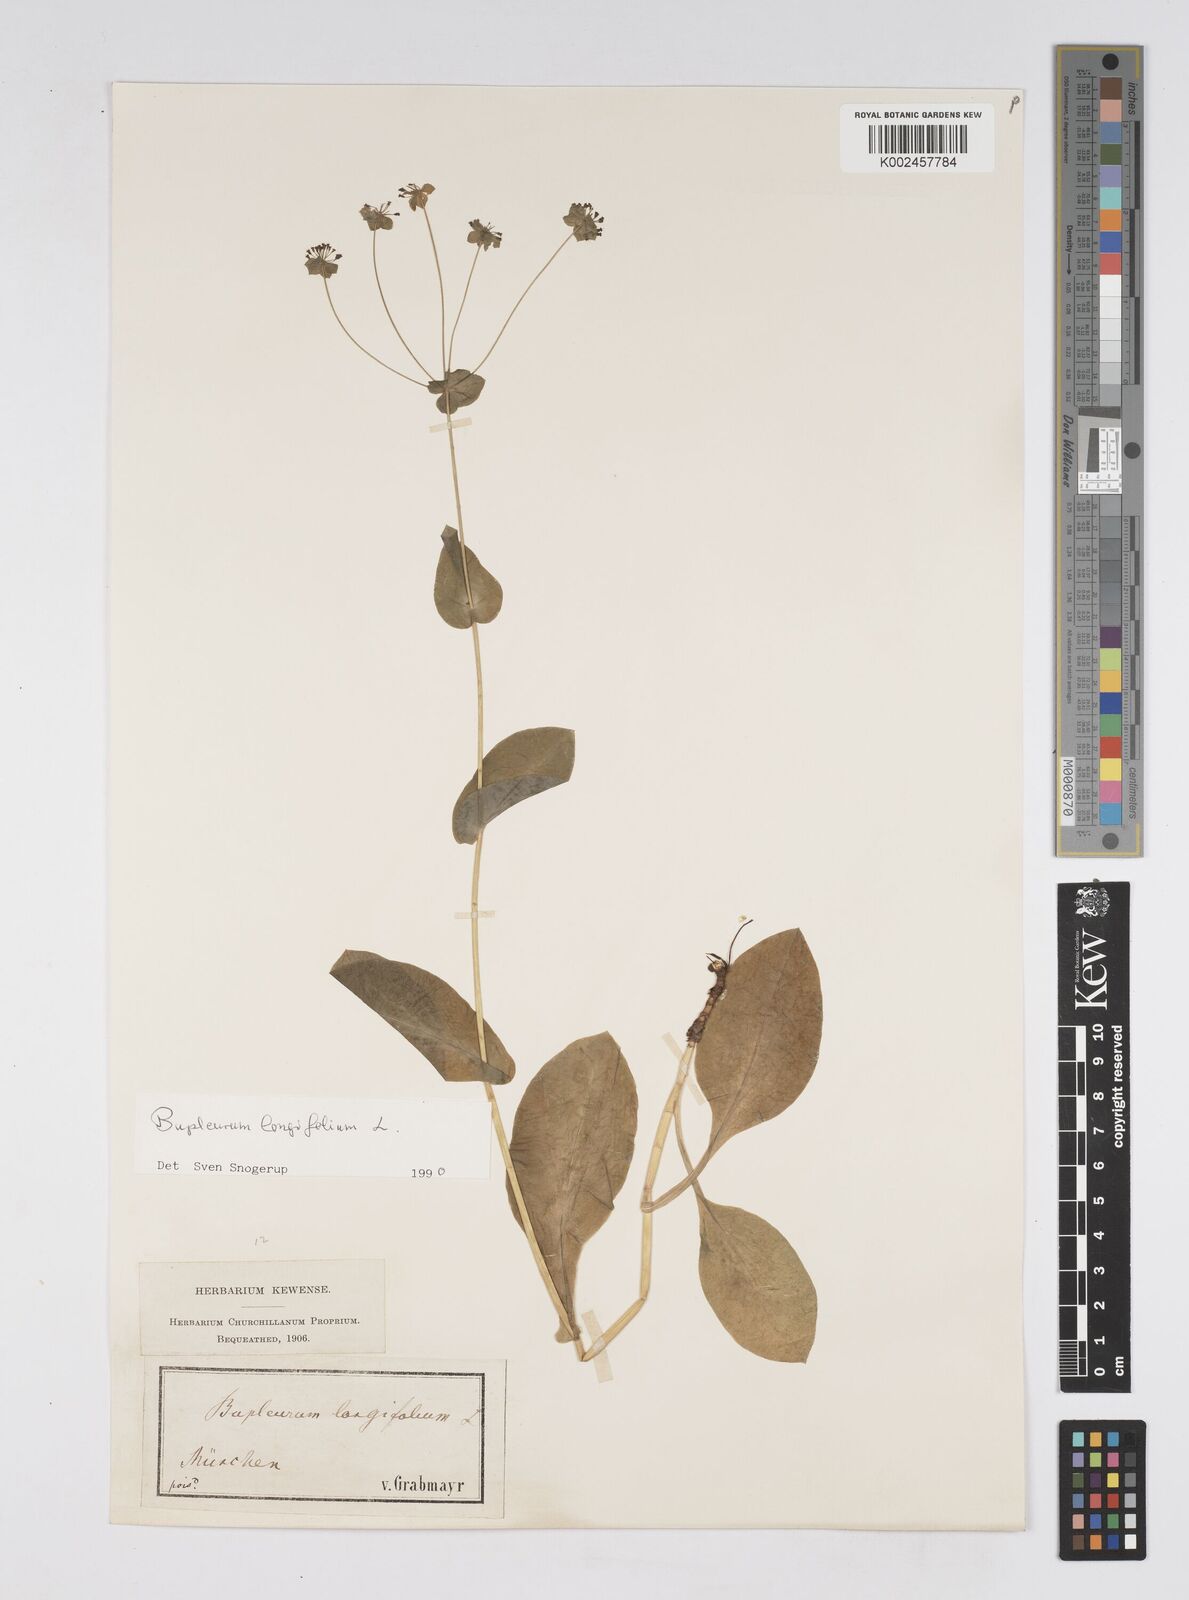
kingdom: Plantae
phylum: Tracheophyta
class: Magnoliopsida
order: Apiales
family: Apiaceae
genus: Bupleurum
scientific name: Bupleurum longifolium
